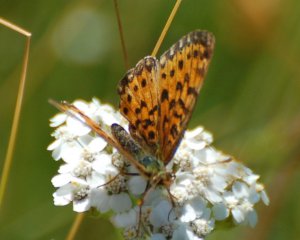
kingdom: Animalia
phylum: Arthropoda
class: Insecta
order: Lepidoptera
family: Nymphalidae
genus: Boloria
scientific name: Boloria selene
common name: Silver-bordered Fritillary
